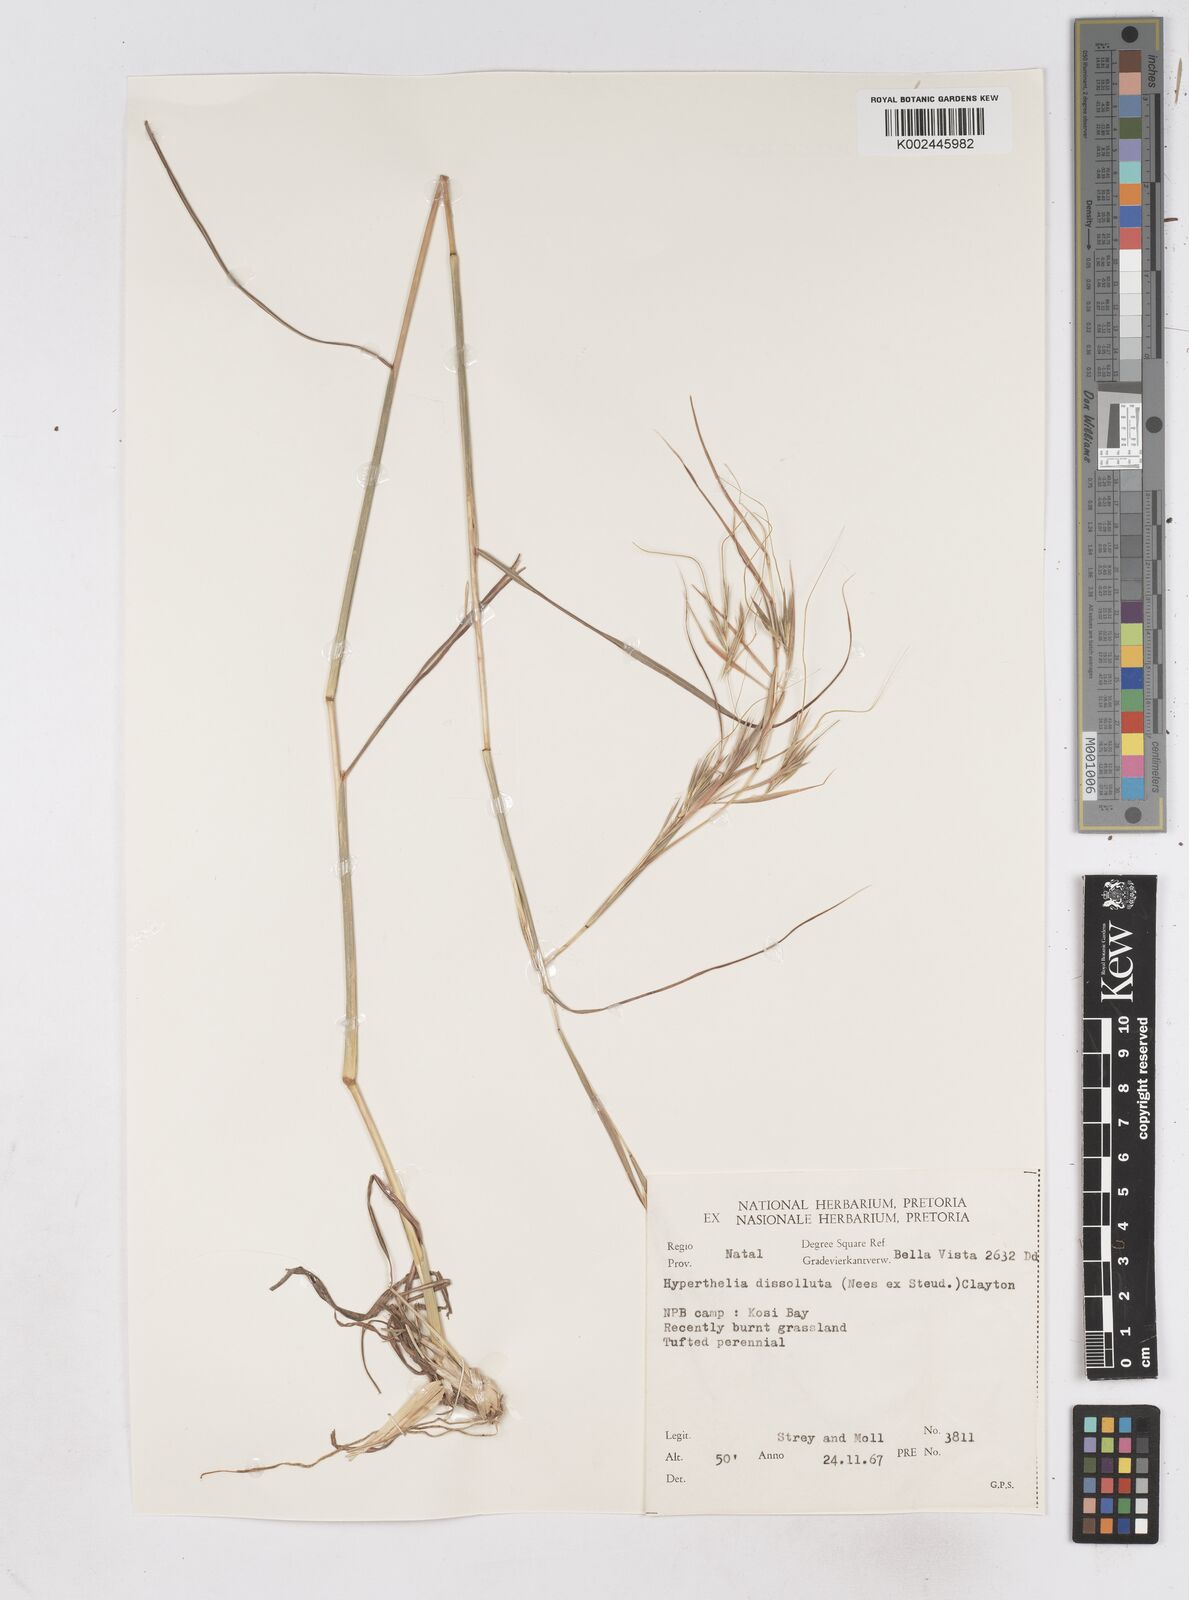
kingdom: Plantae
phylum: Tracheophyta
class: Liliopsida
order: Poales
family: Poaceae
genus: Hyperthelia
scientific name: Hyperthelia dissoluta
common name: Yellow thatching grass
